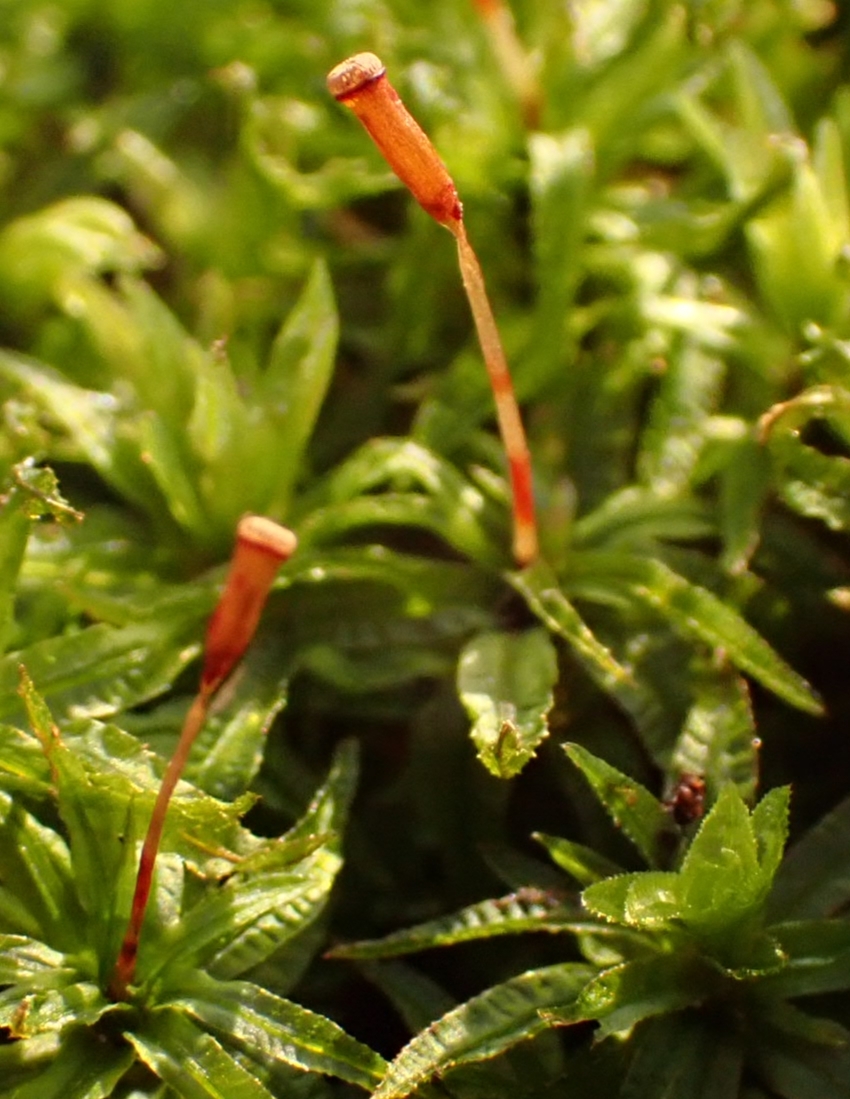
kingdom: Plantae
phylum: Bryophyta
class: Polytrichopsida
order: Polytrichales
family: Polytrichaceae
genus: Atrichum
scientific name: Atrichum undulatum
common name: Bølget katrinemos
